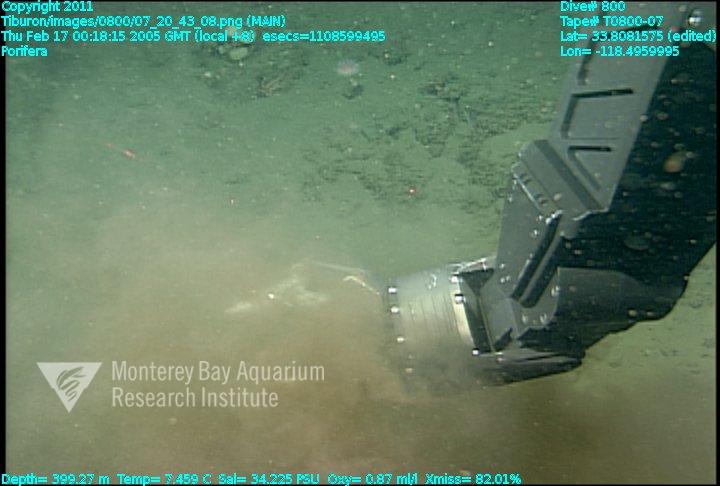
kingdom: Animalia
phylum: Porifera
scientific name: Porifera
